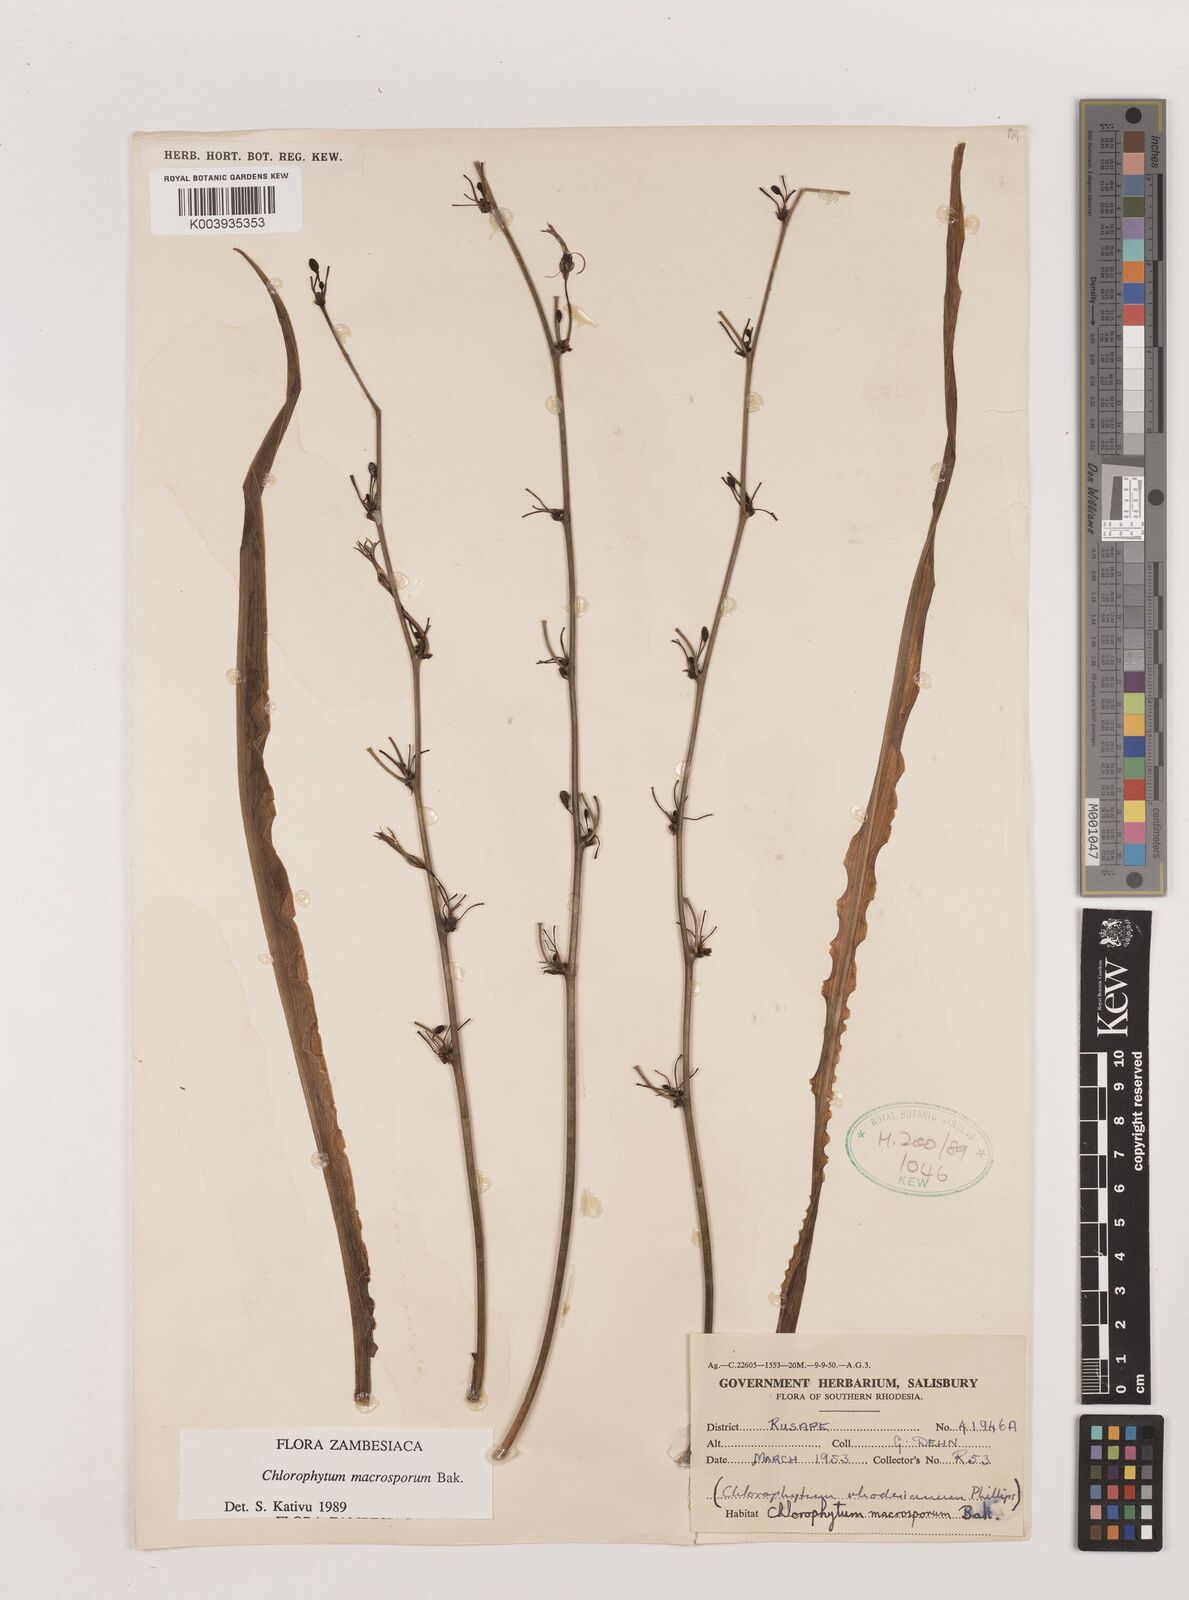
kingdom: Plantae
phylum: Tracheophyta
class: Liliopsida
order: Asparagales
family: Asparagaceae
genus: Chlorophytum
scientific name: Chlorophytum macrosporum
